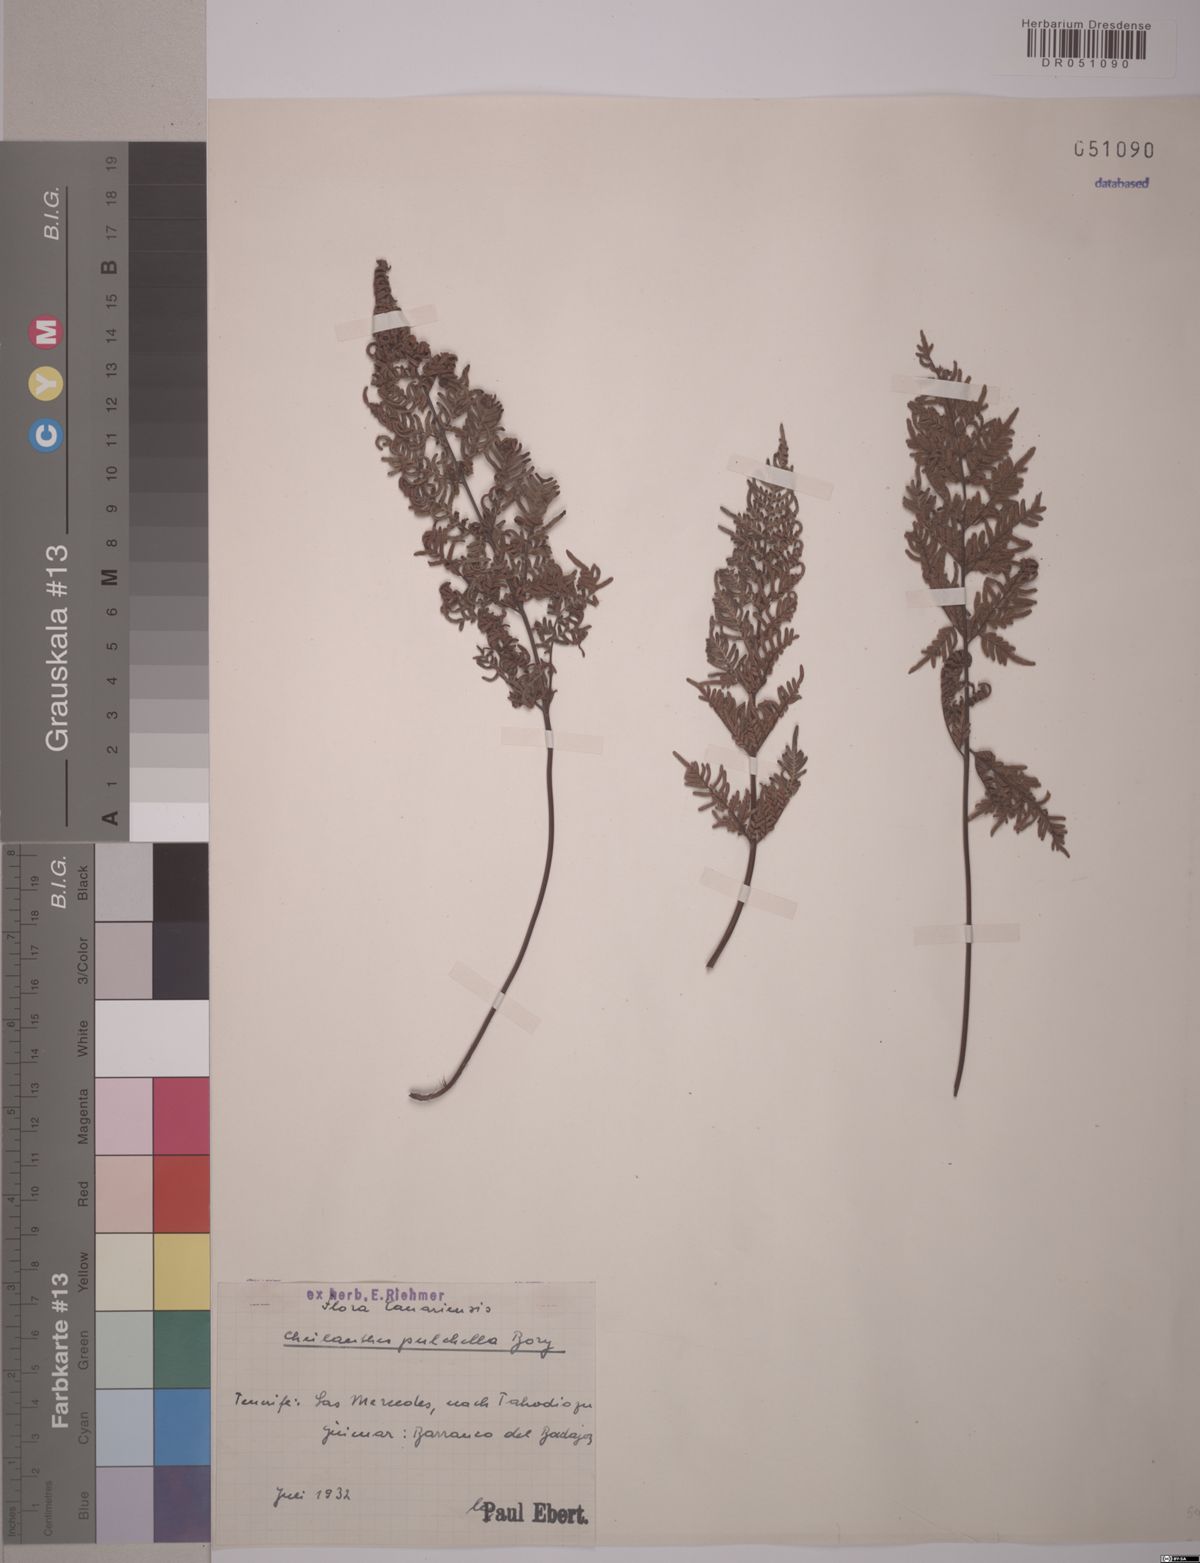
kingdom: Plantae
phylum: Tracheophyta
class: Polypodiopsida
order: Polypodiales
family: Pteridaceae
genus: Cheilanthes
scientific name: Cheilanthes pulchella
